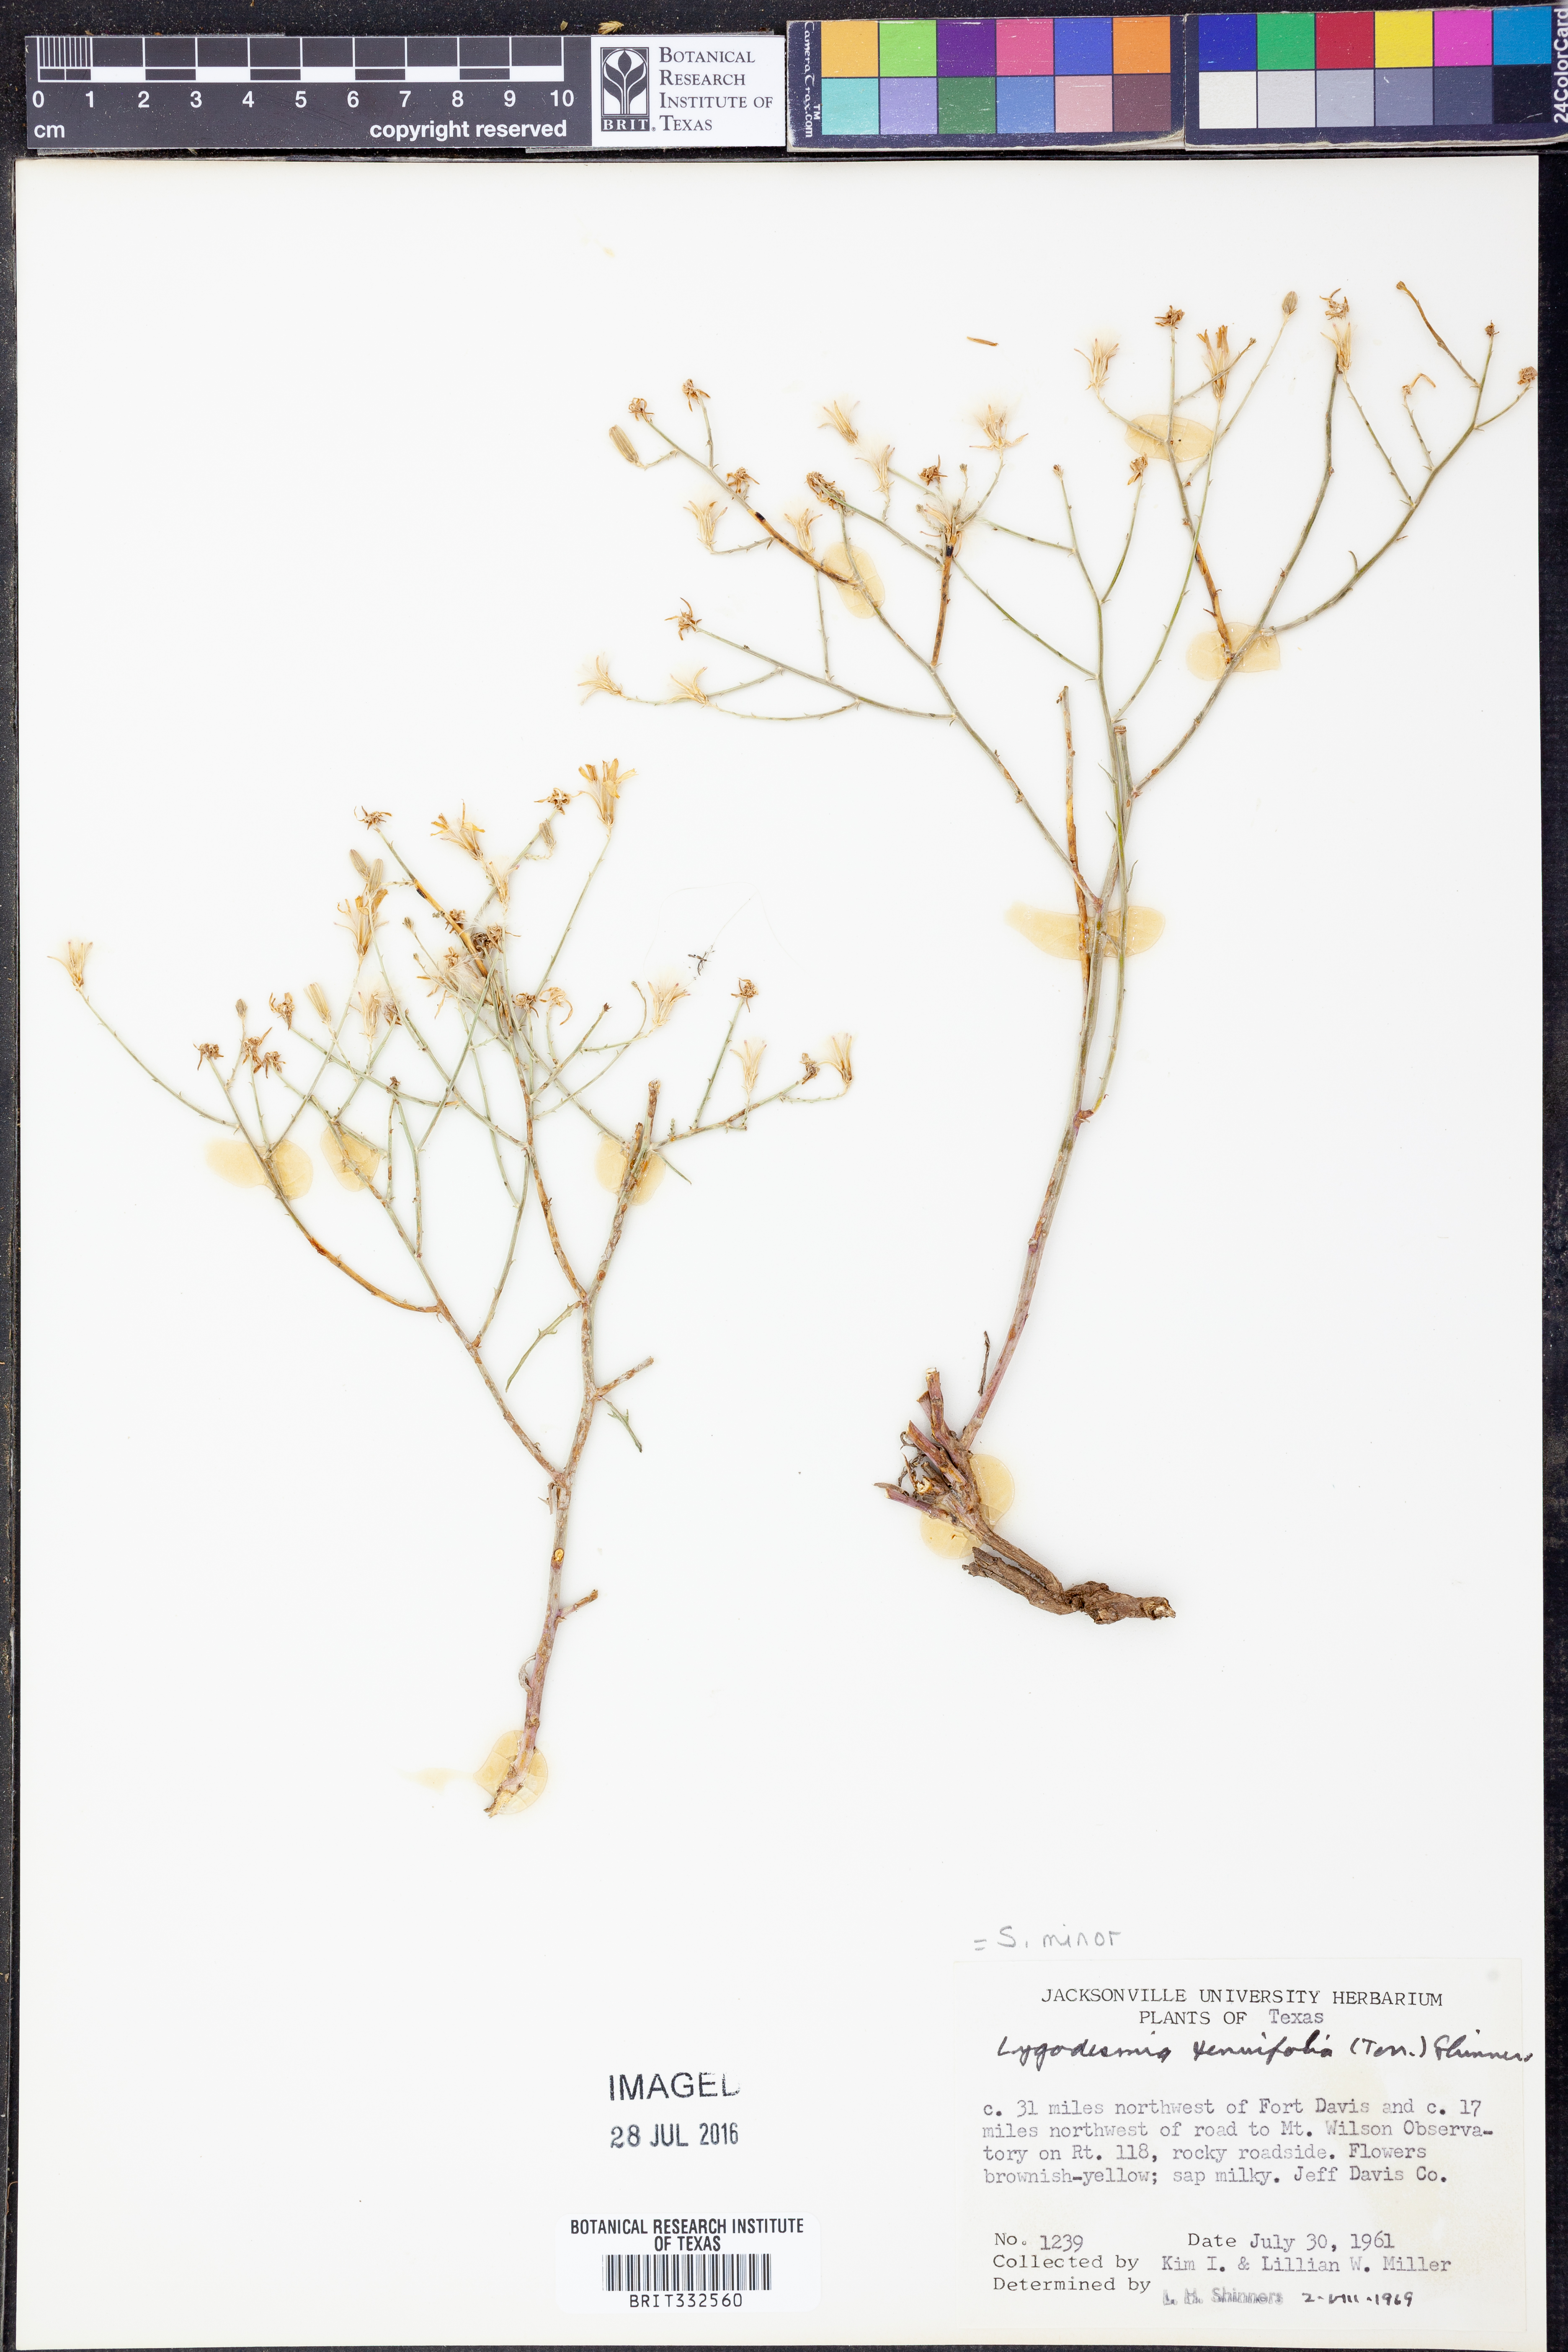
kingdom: Plantae
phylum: Tracheophyta
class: Magnoliopsida
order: Asterales
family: Asteraceae
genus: Stephanomeria
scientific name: Stephanomeria tenuifolia
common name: Slender wirelettuce
